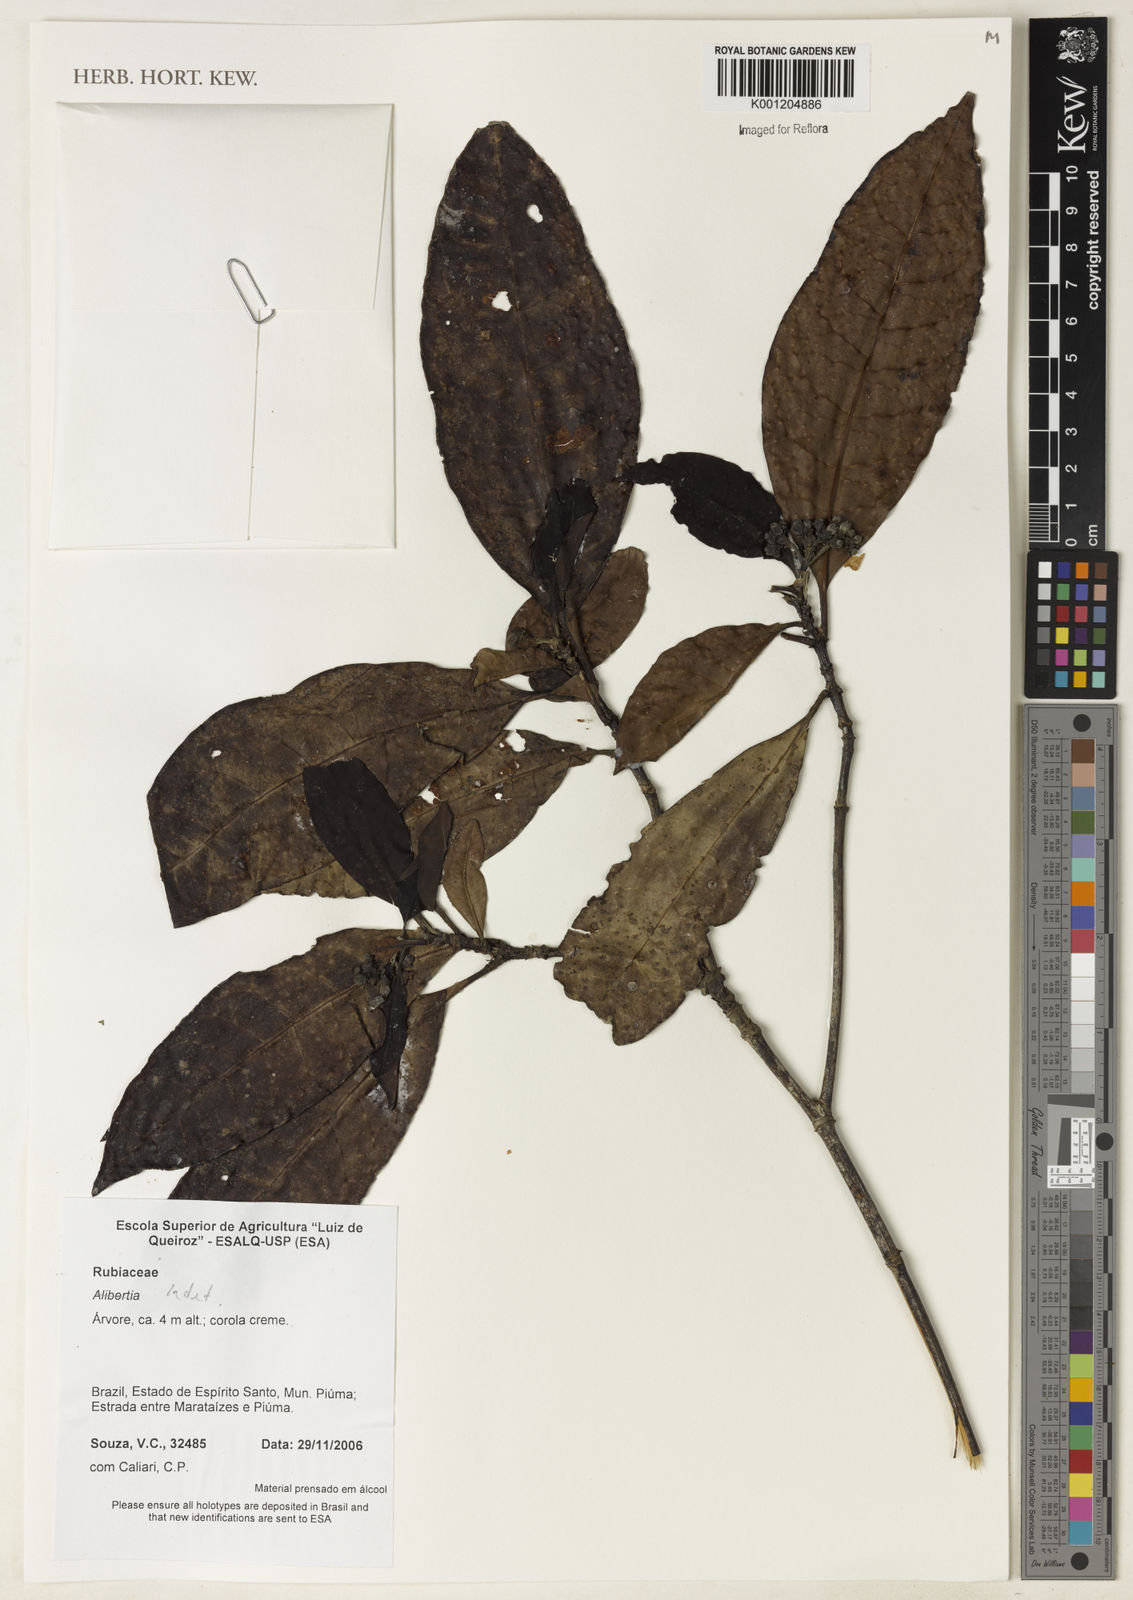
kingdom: Plantae
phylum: Tracheophyta
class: Magnoliopsida
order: Gentianales
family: Rubiaceae
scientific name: Rubiaceae
